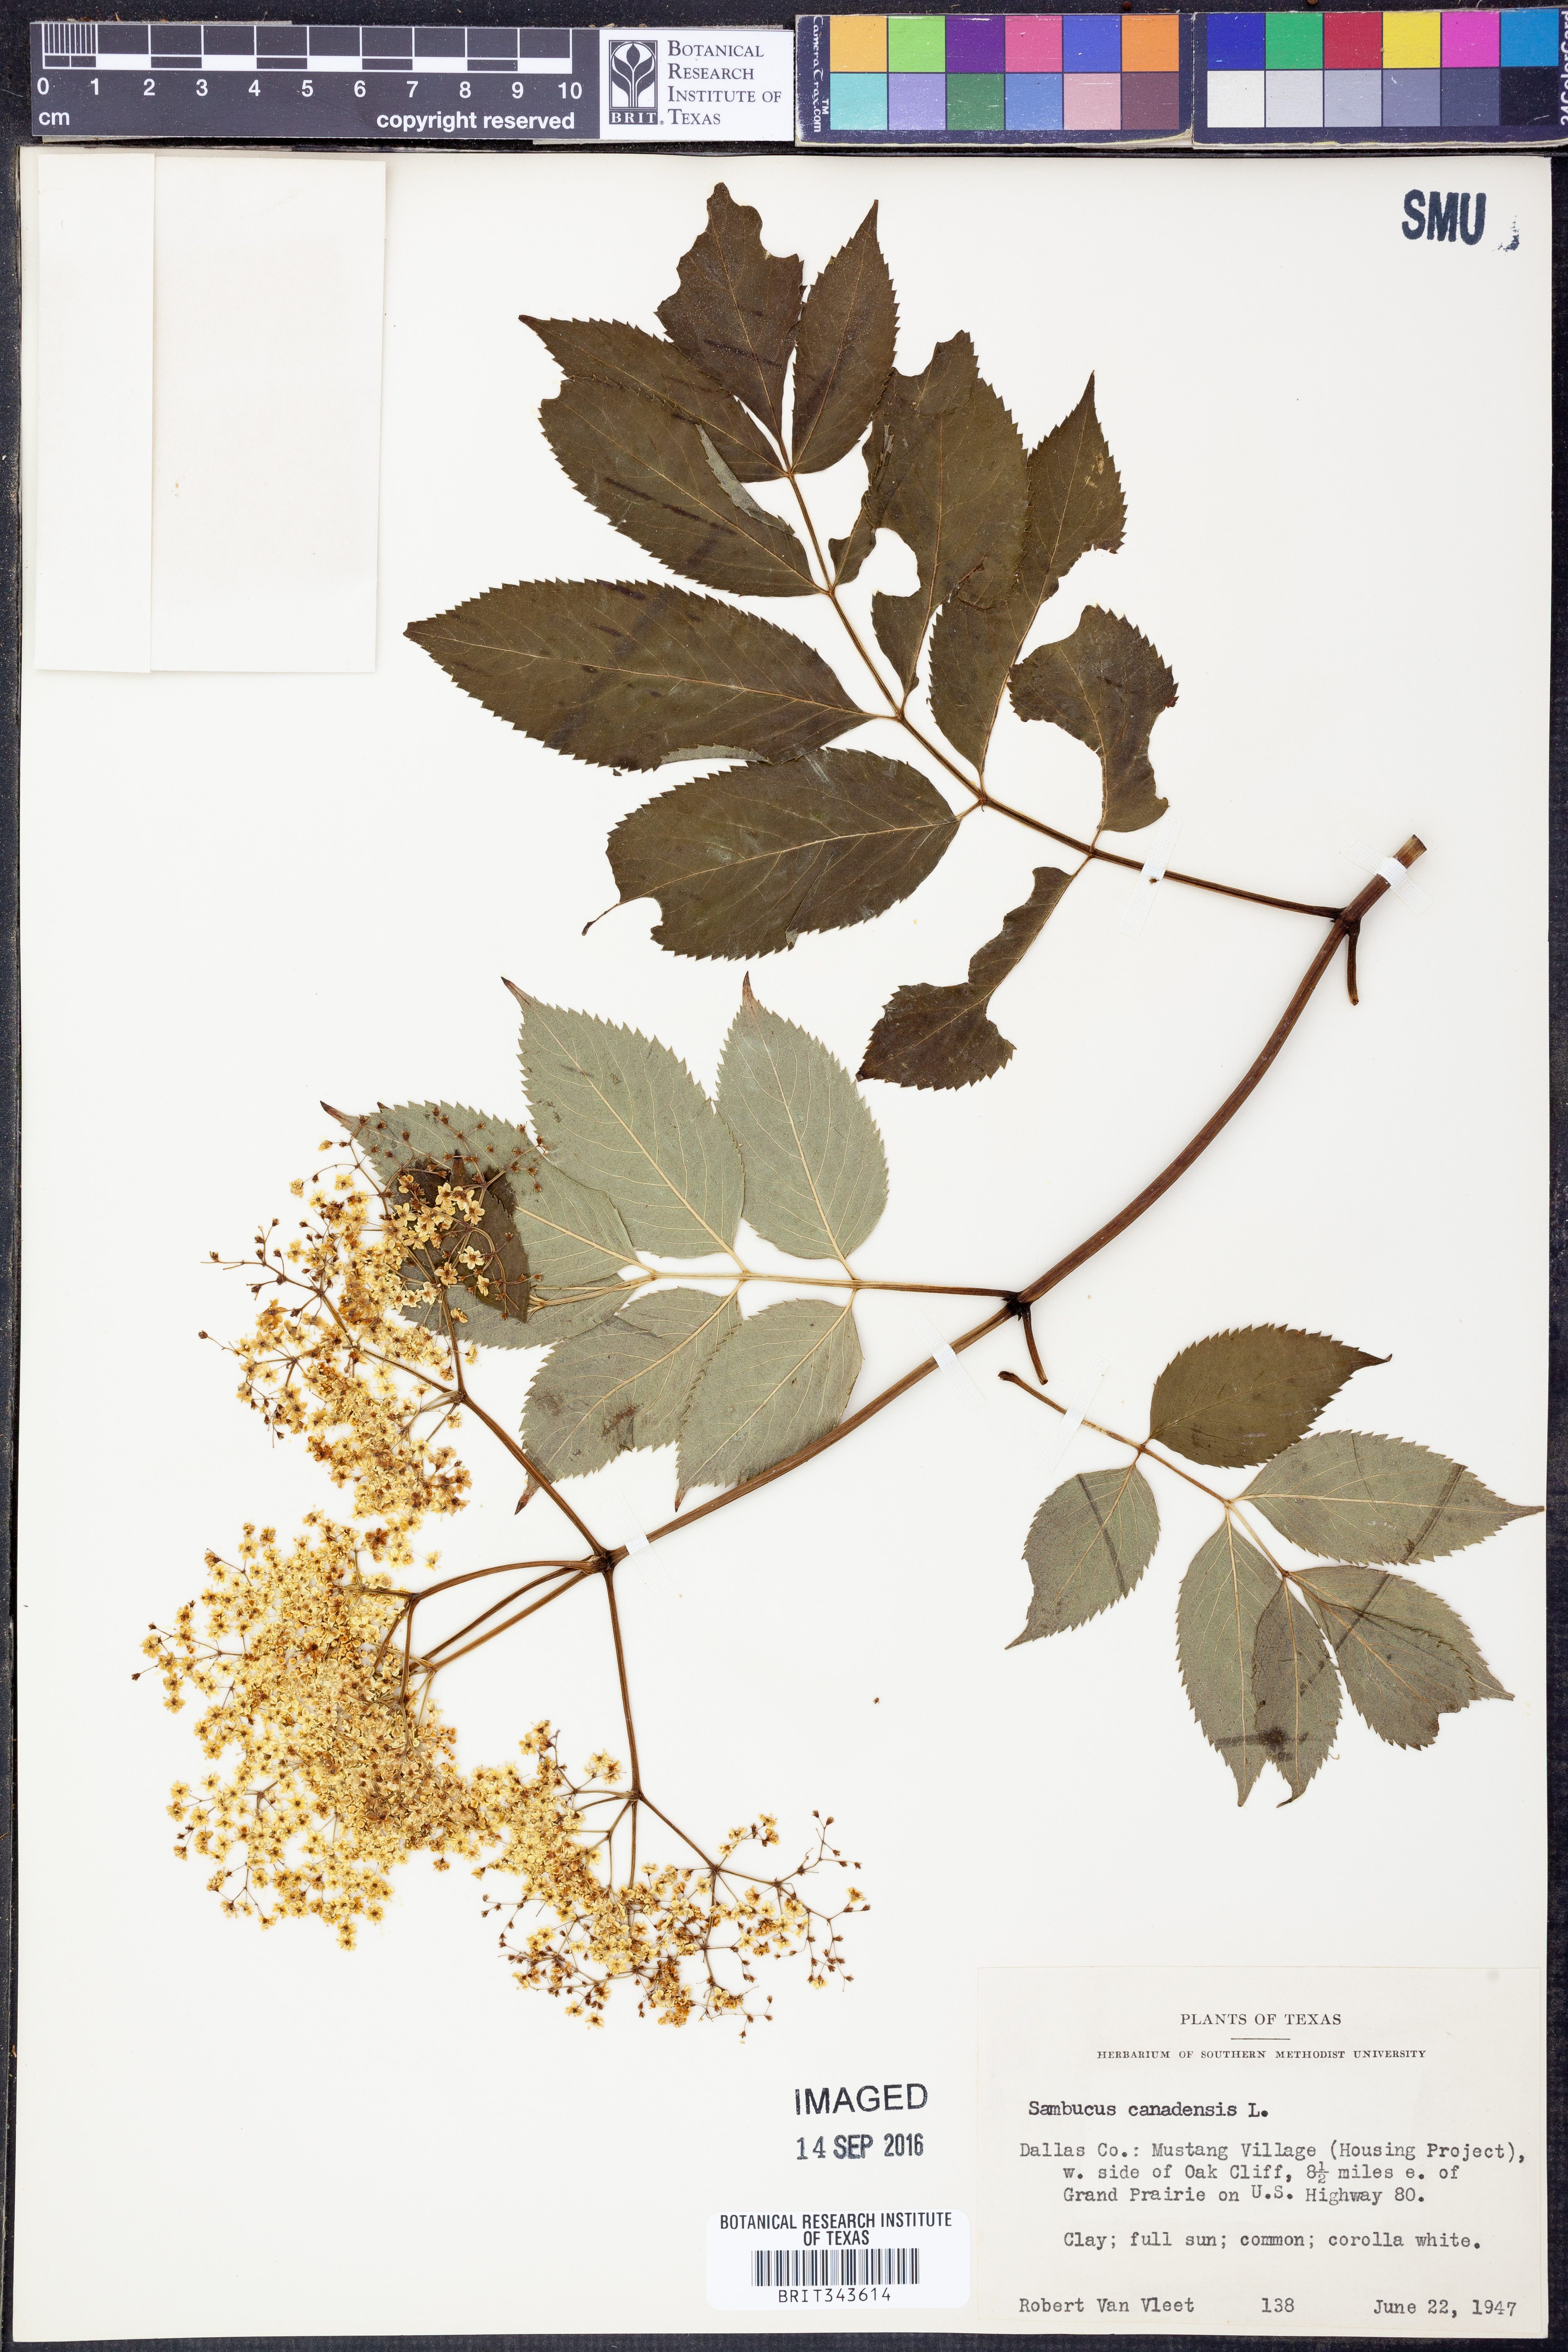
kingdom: Plantae
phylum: Tracheophyta
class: Magnoliopsida
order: Dipsacales
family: Viburnaceae
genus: Sambucus
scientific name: Sambucus canadensis
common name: American elder
